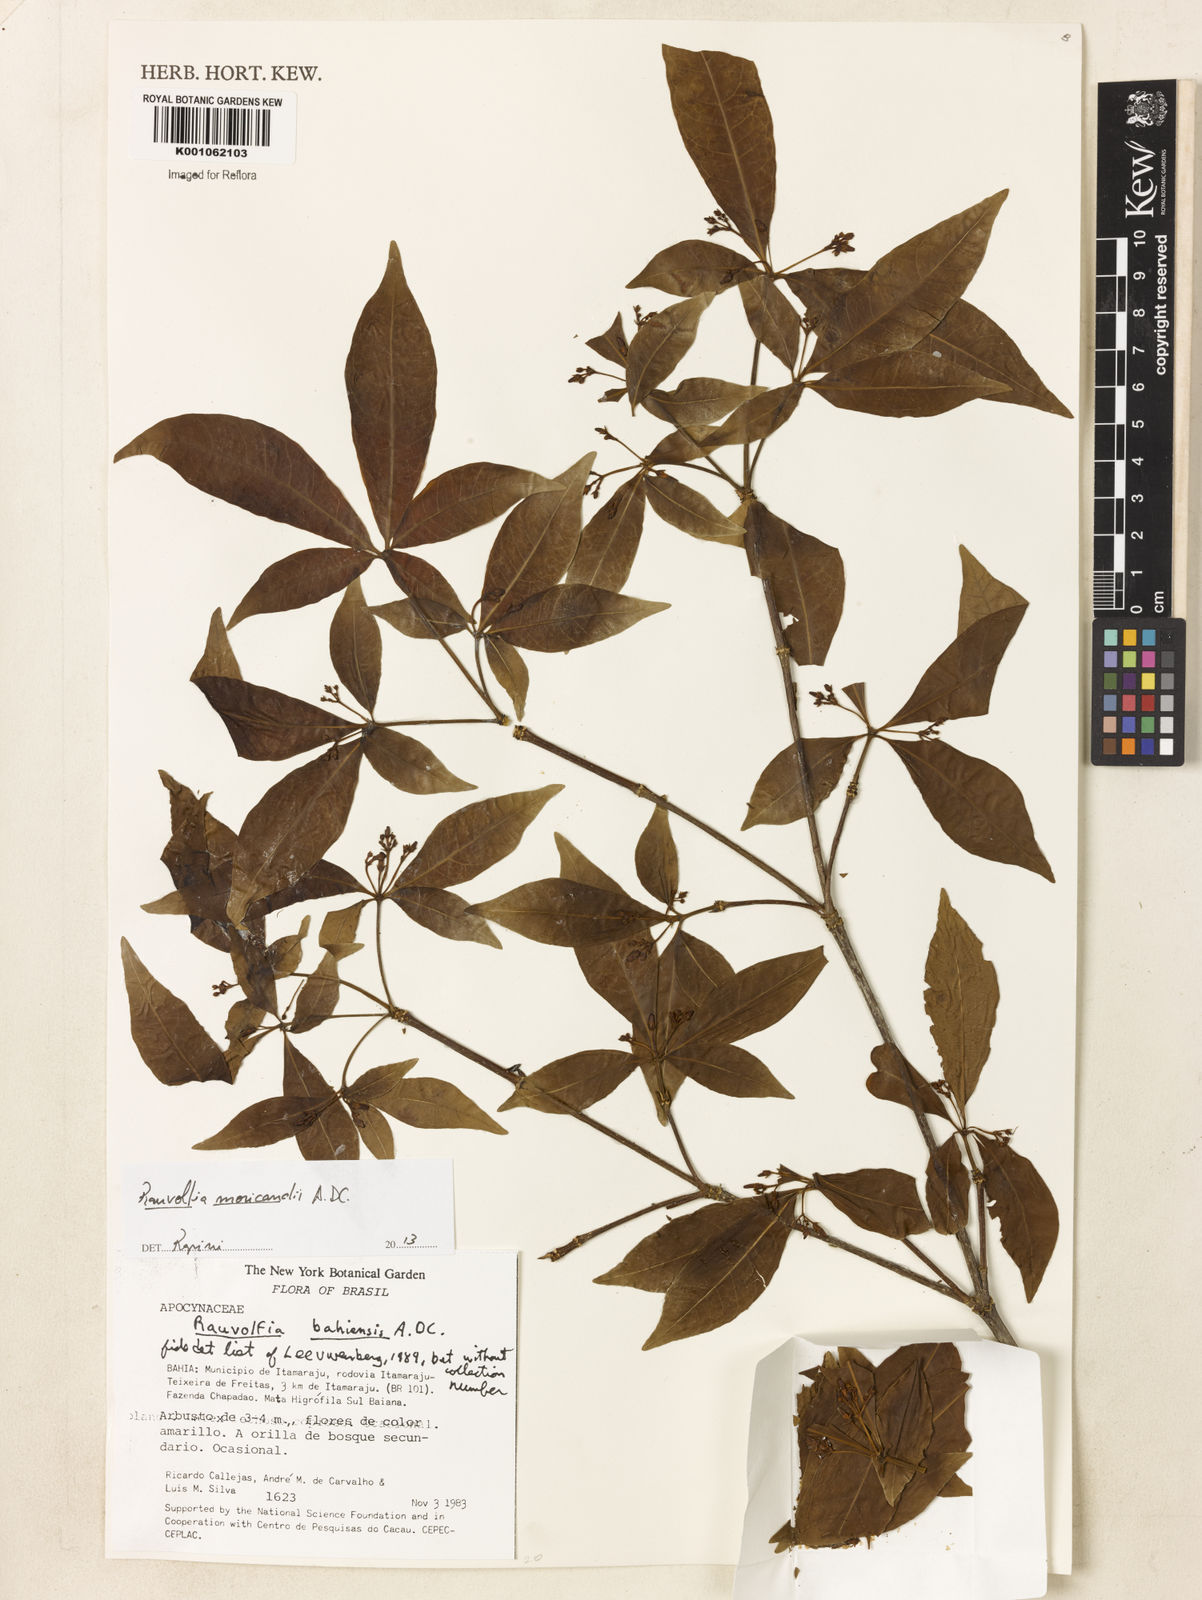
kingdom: Plantae
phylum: Tracheophyta
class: Magnoliopsida
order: Gentianales
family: Apocynaceae
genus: Rauvolfia
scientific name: Rauvolfia moricandii
